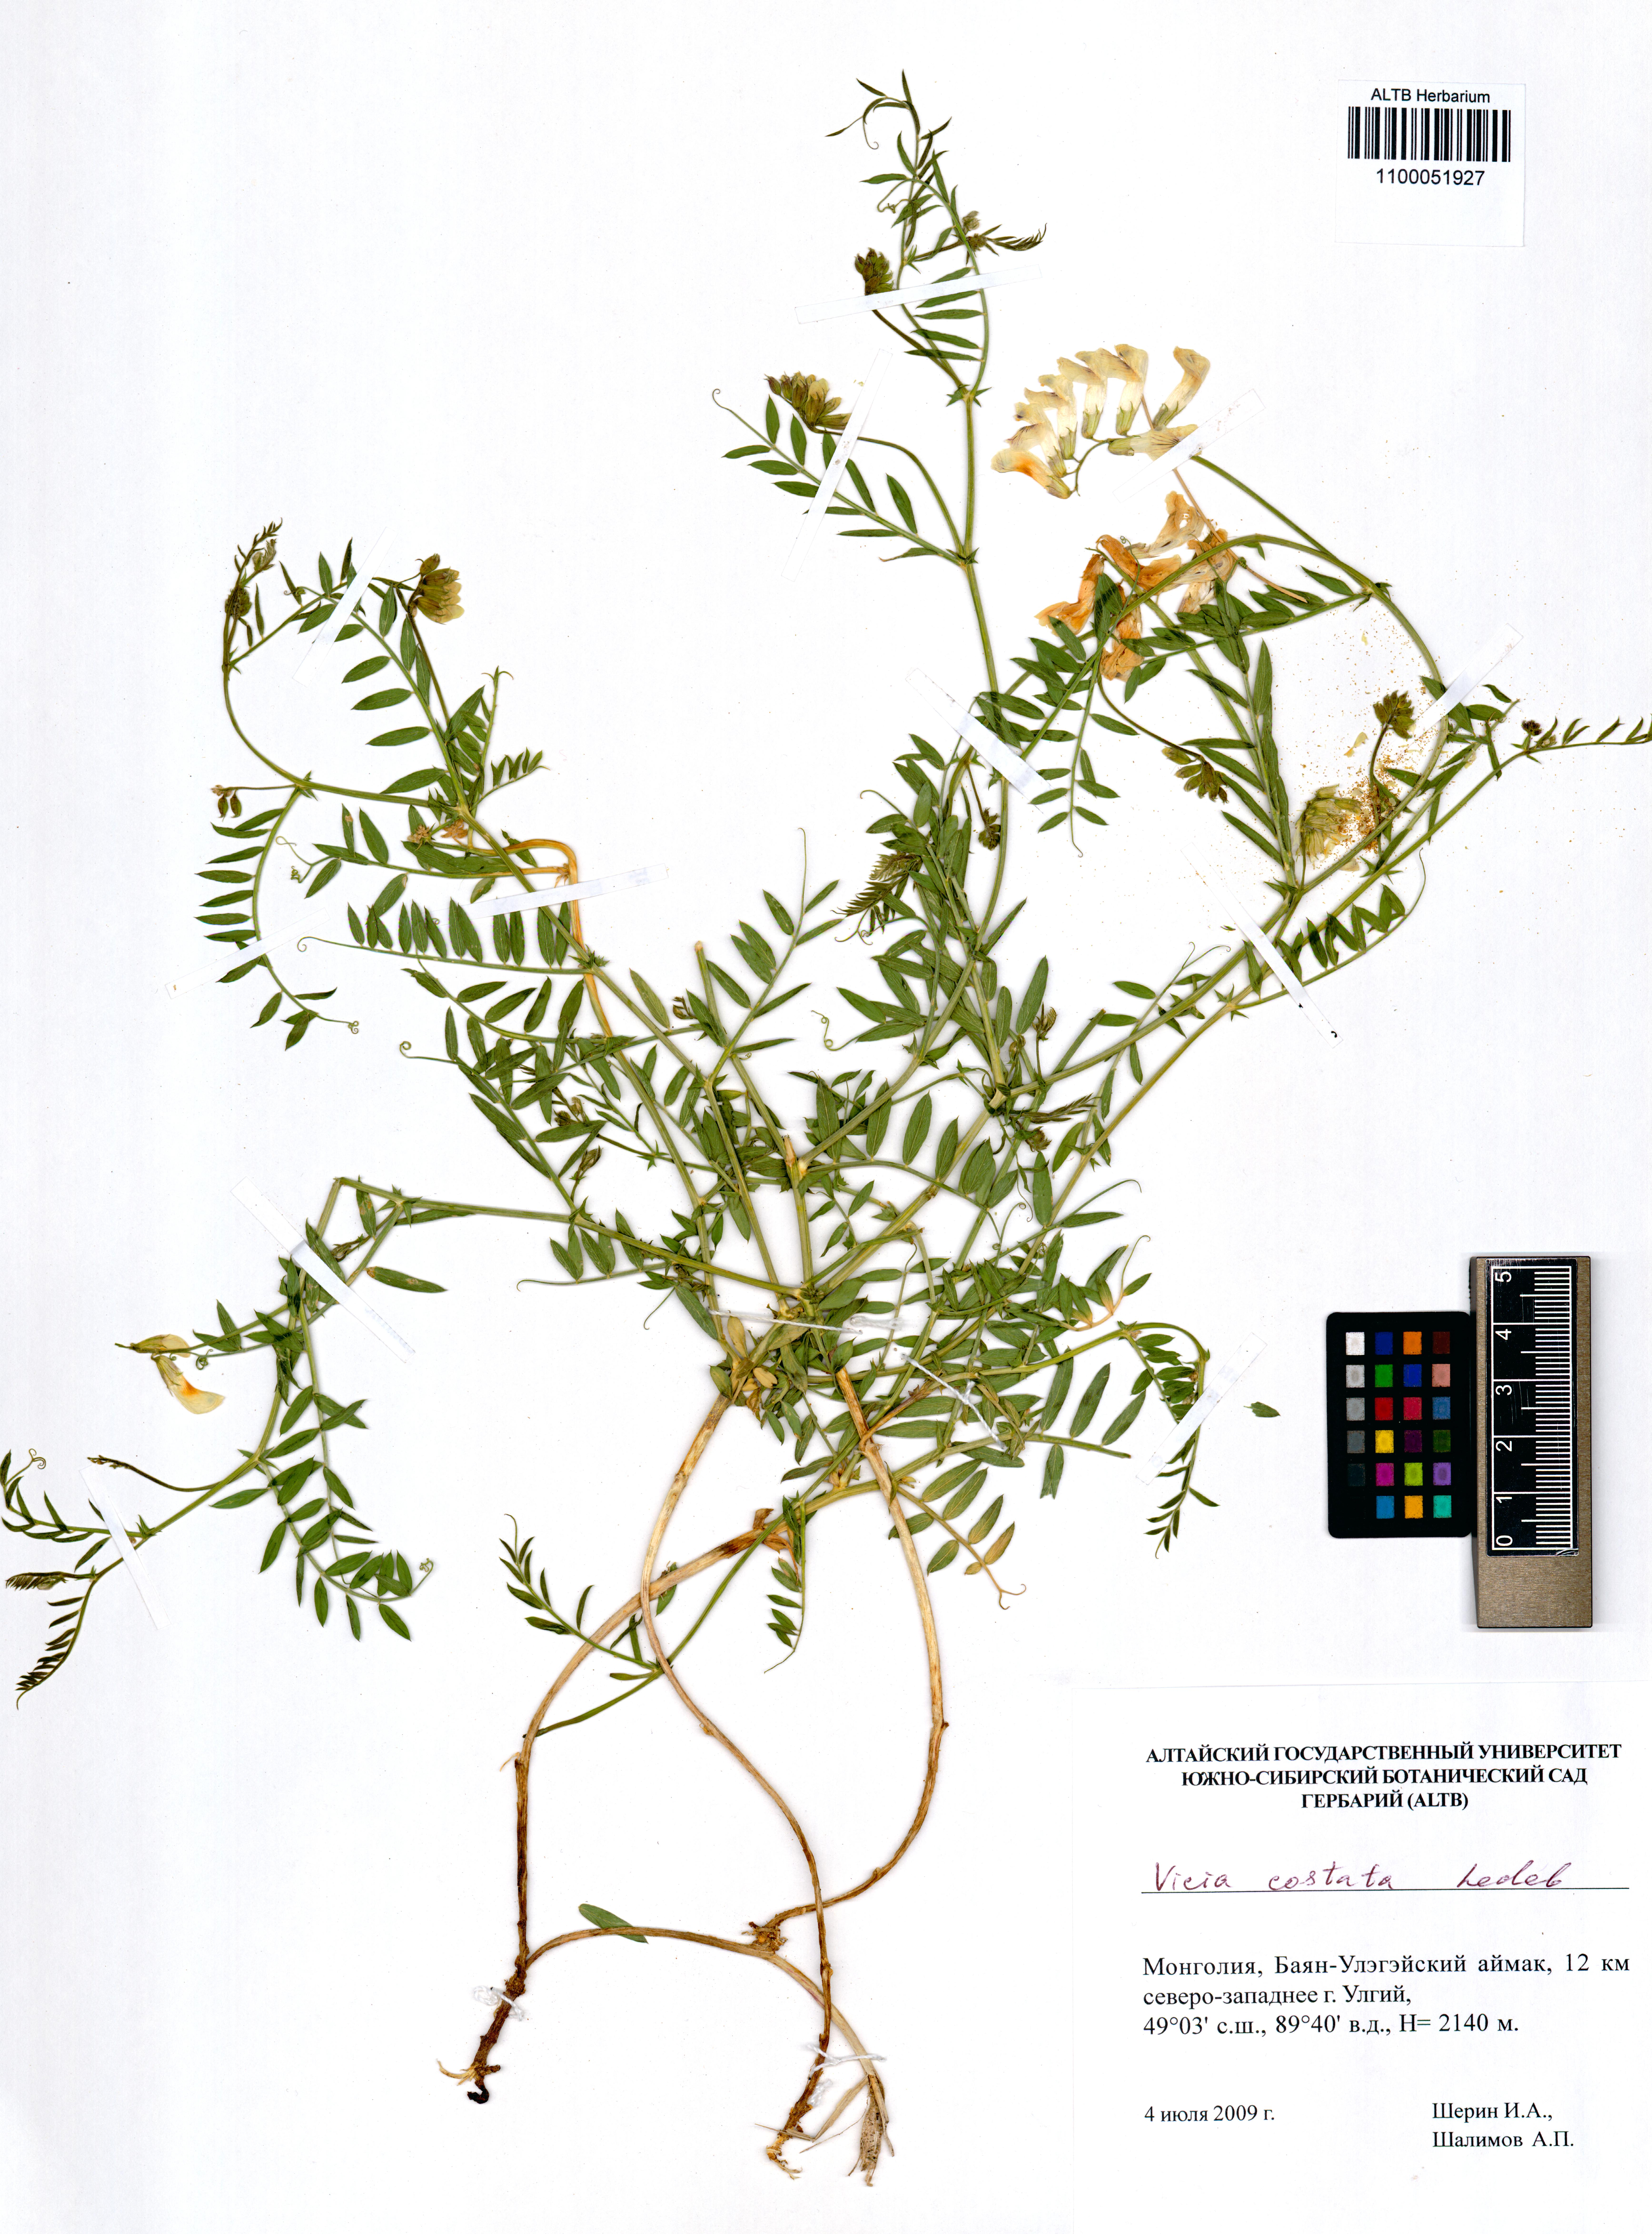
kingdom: Plantae
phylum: Tracheophyta
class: Magnoliopsida
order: Fabales
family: Fabaceae
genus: Vicia
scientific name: Vicia costata
